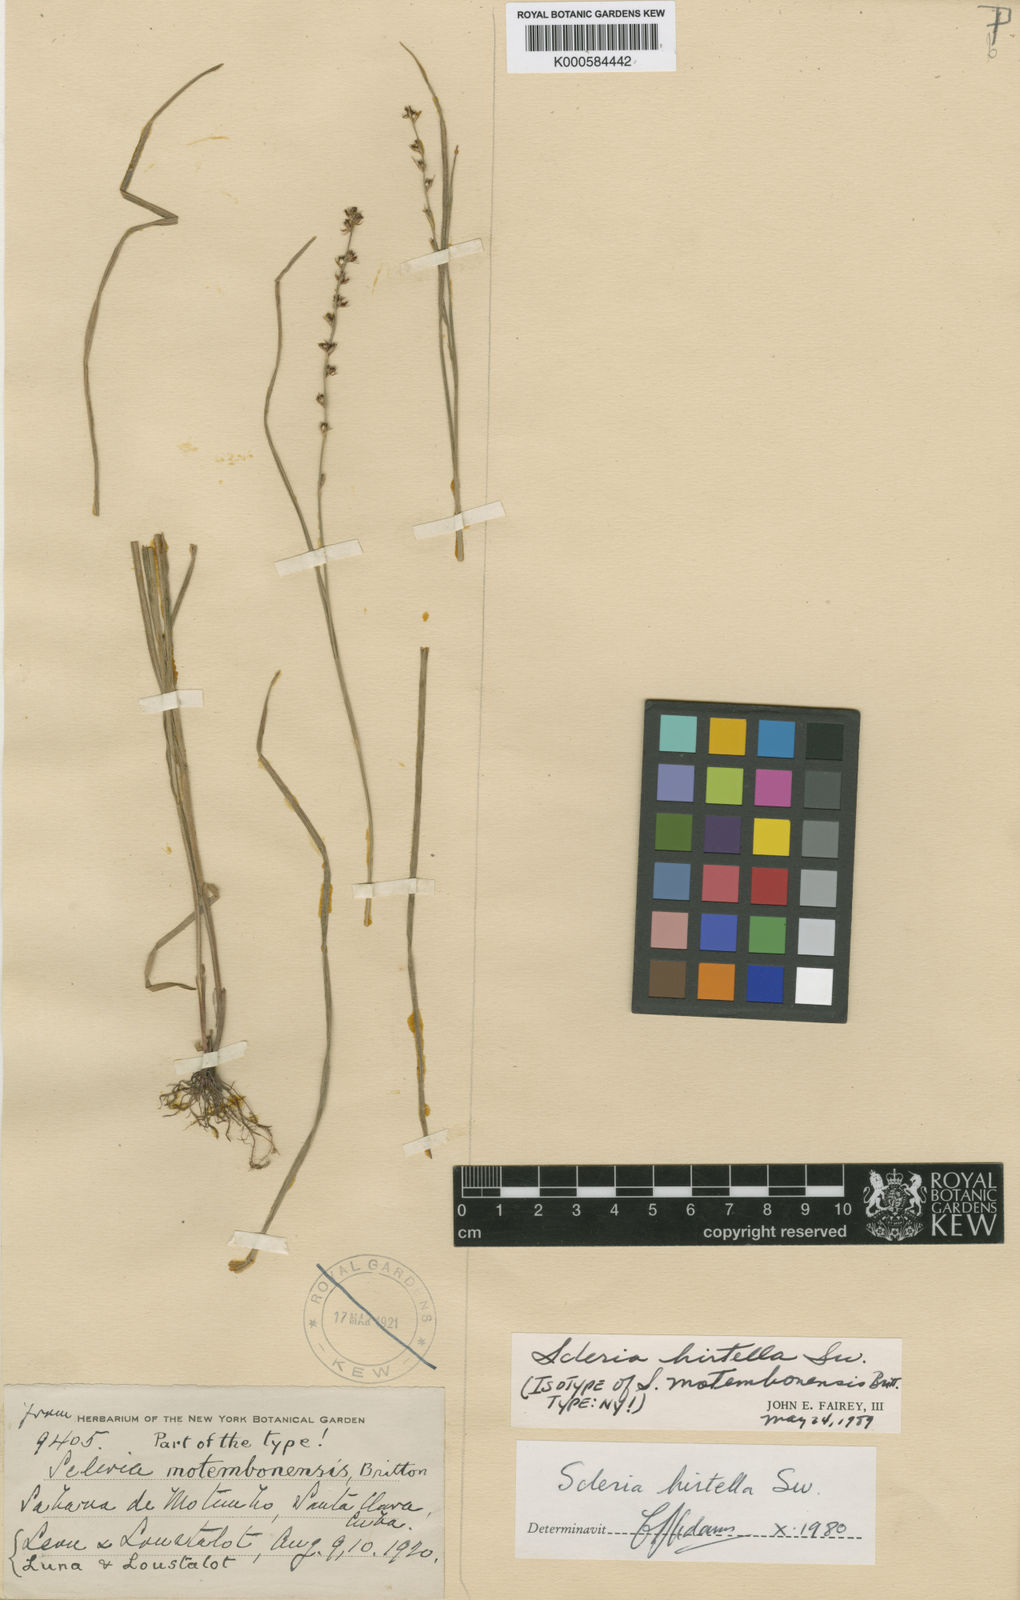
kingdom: Plantae
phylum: Tracheophyta
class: Liliopsida
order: Poales
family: Cyperaceae
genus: Scleria
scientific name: Scleria hirtella
